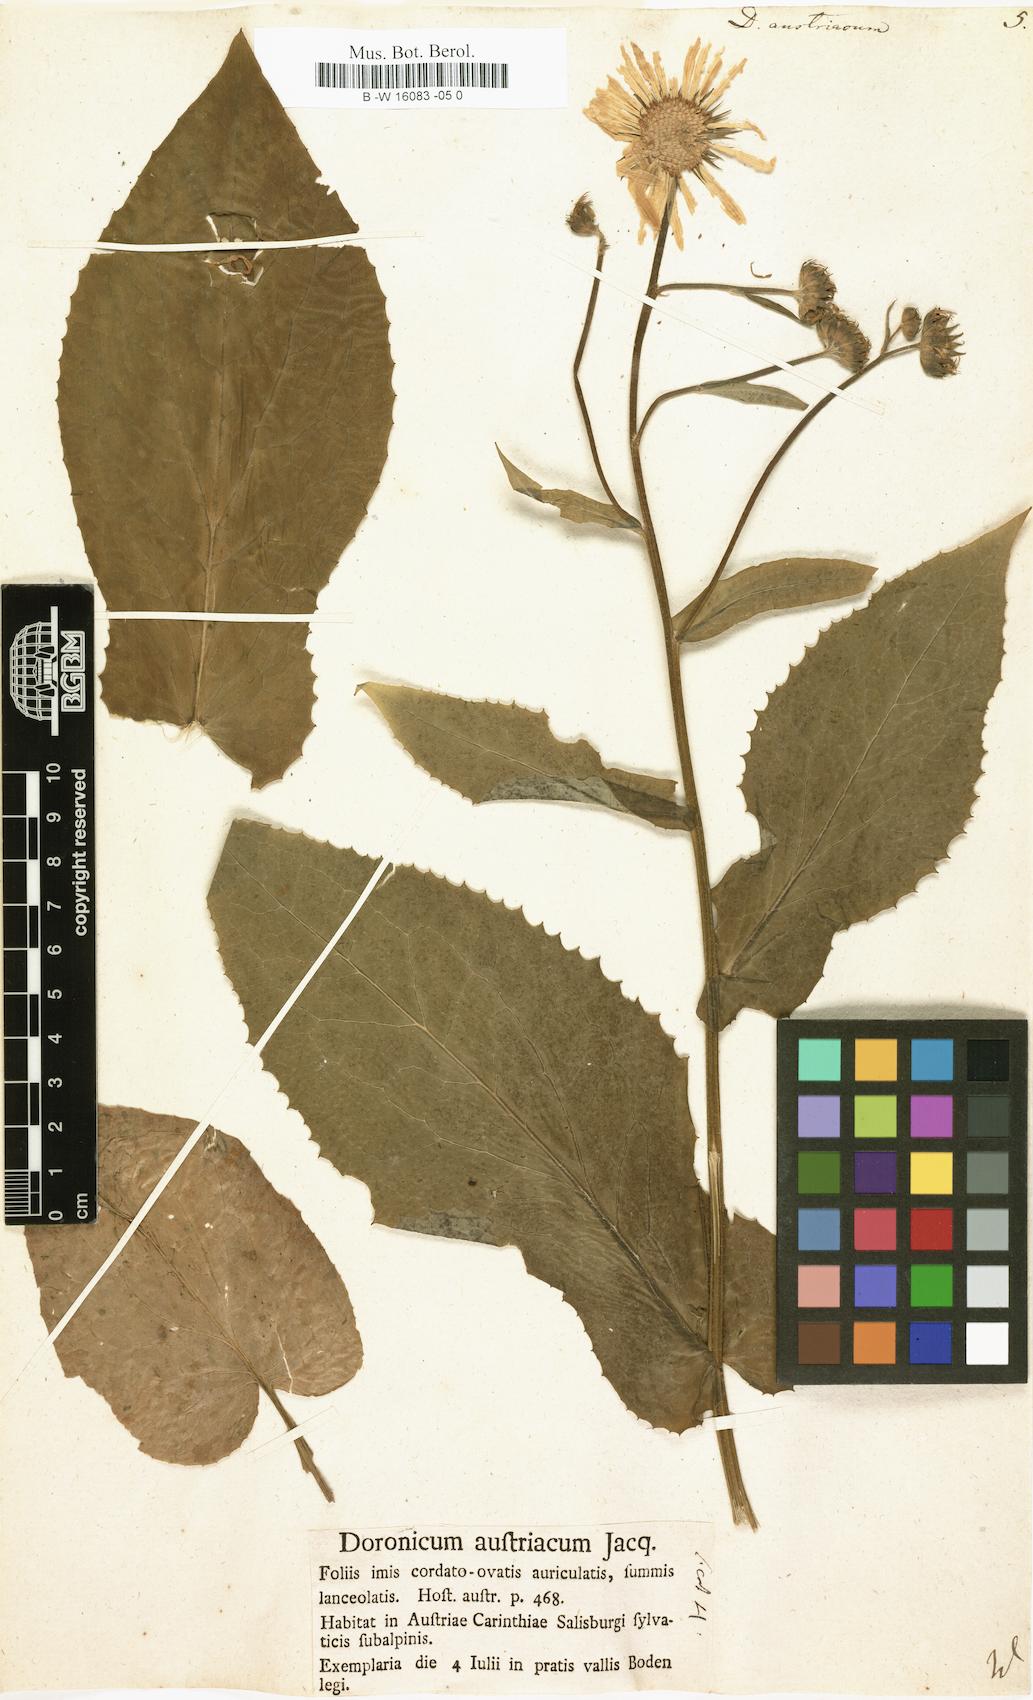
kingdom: Plantae
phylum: Tracheophyta
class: Magnoliopsida
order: Asterales
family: Asteraceae
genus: Doronicum
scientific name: Doronicum austriacum
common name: Austrian leopard's-bane
